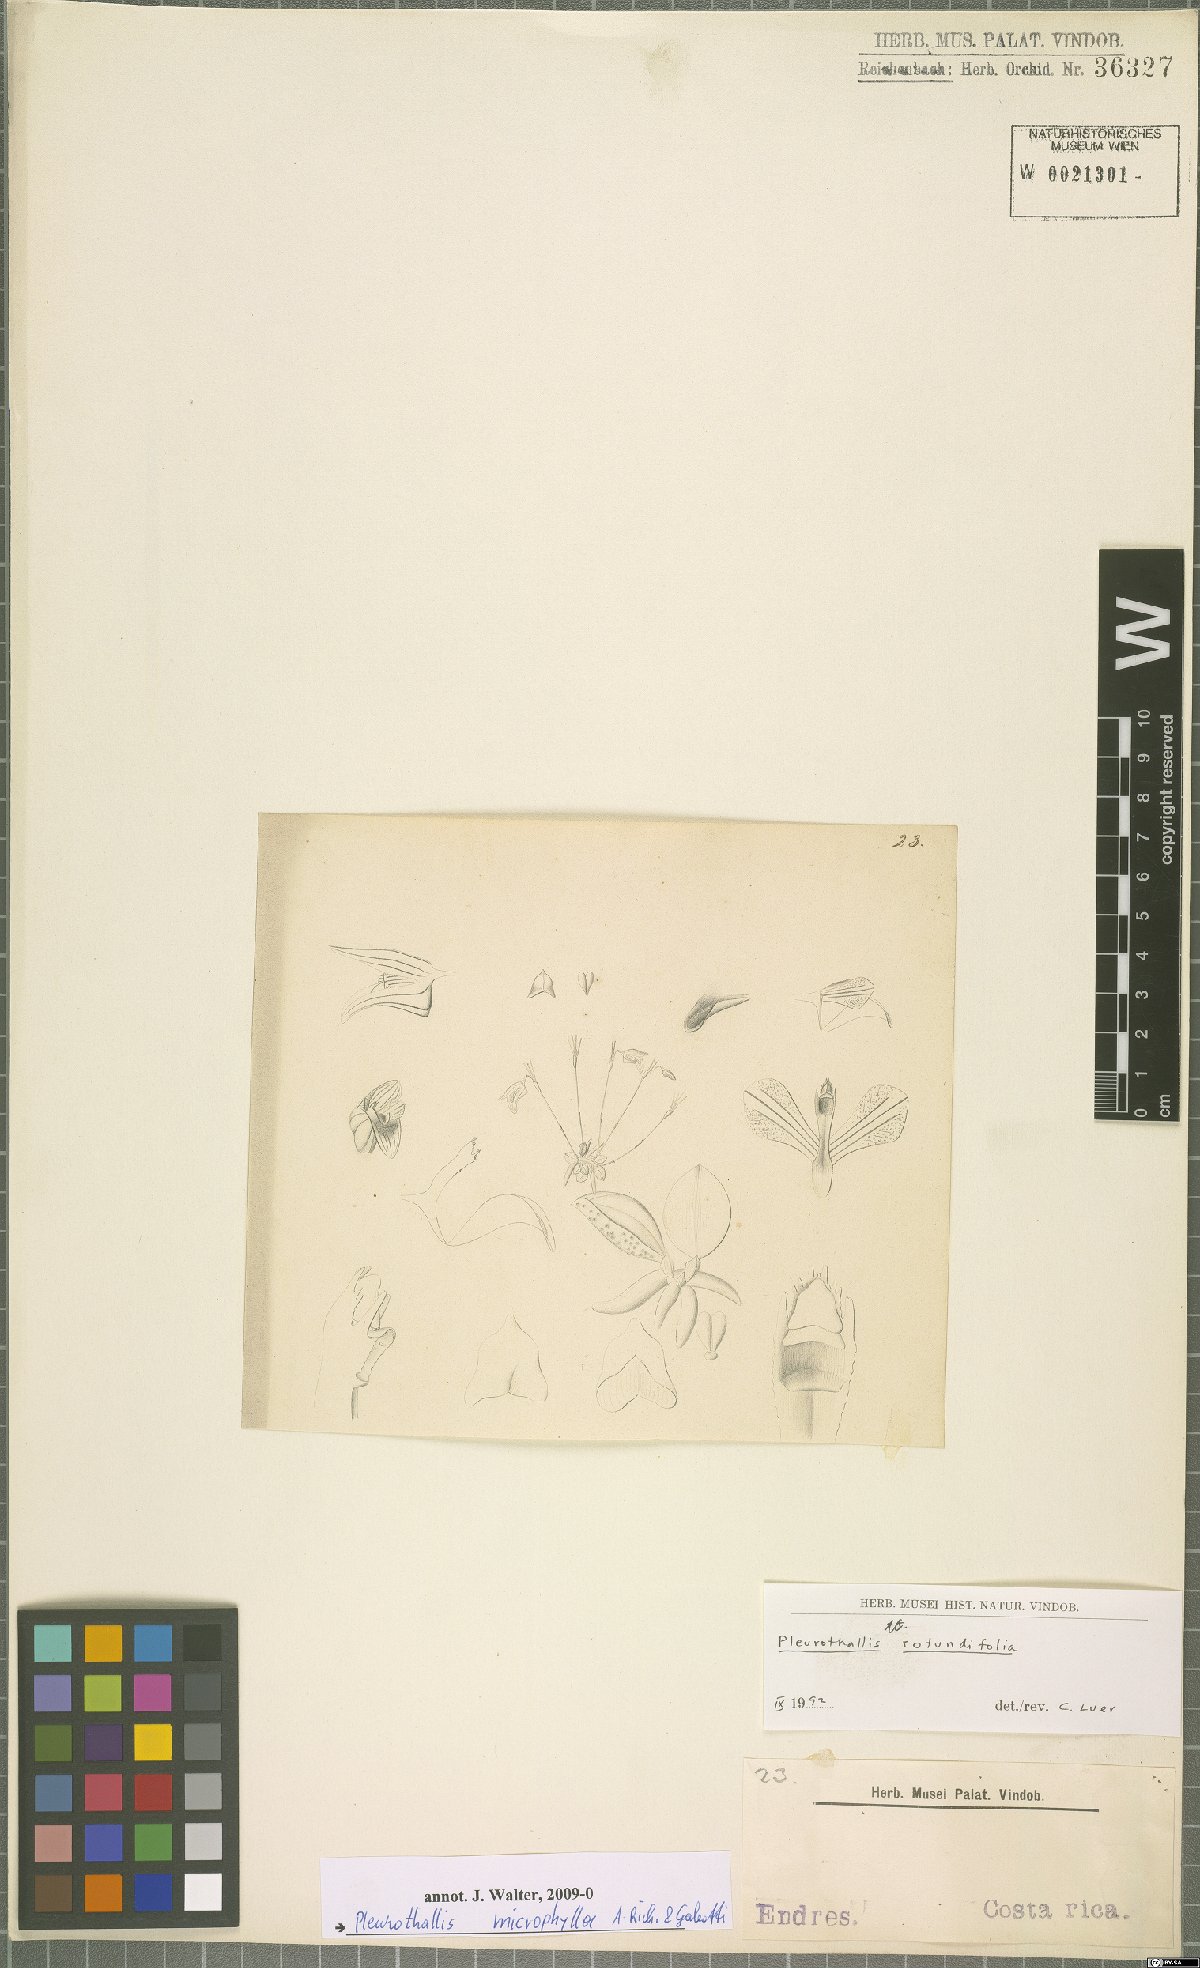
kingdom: Plantae
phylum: Tracheophyta
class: Liliopsida
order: Asparagales
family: Orchidaceae
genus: Pabstiella
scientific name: Pabstiella
